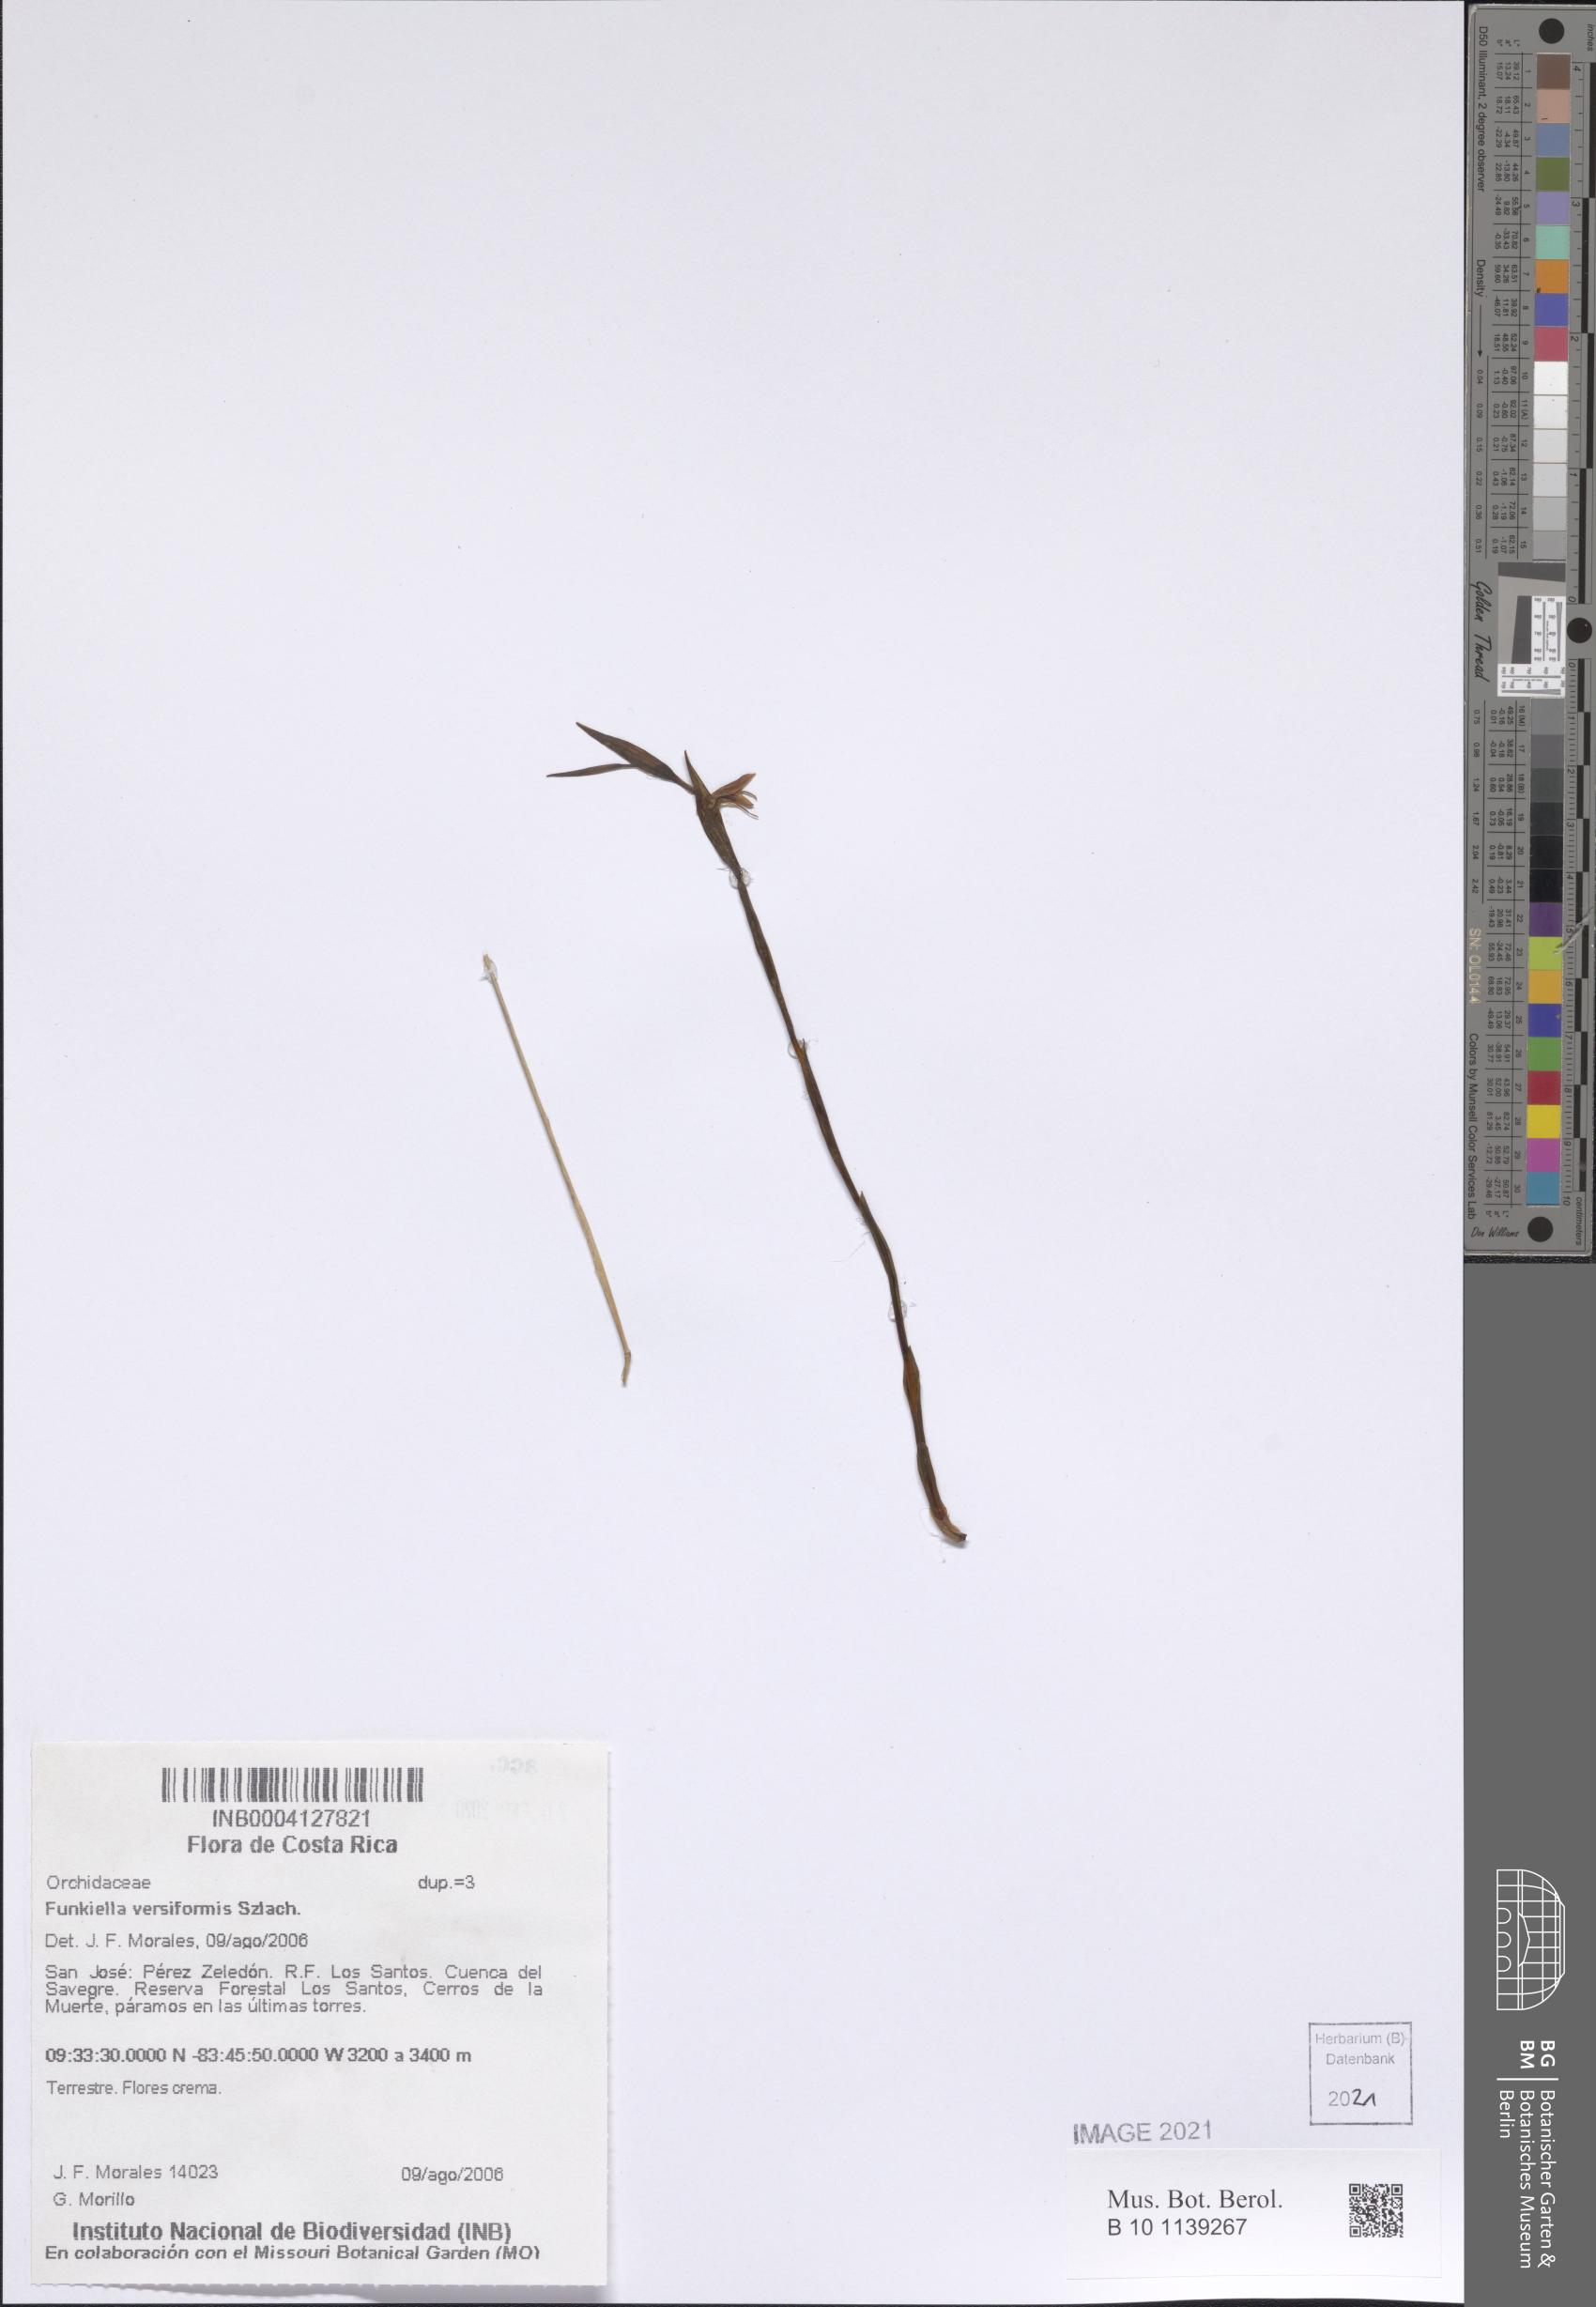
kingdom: Plantae
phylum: Tracheophyta
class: Liliopsida
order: Asparagales
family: Orchidaceae
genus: Funkiella
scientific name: Funkiella versiformis
